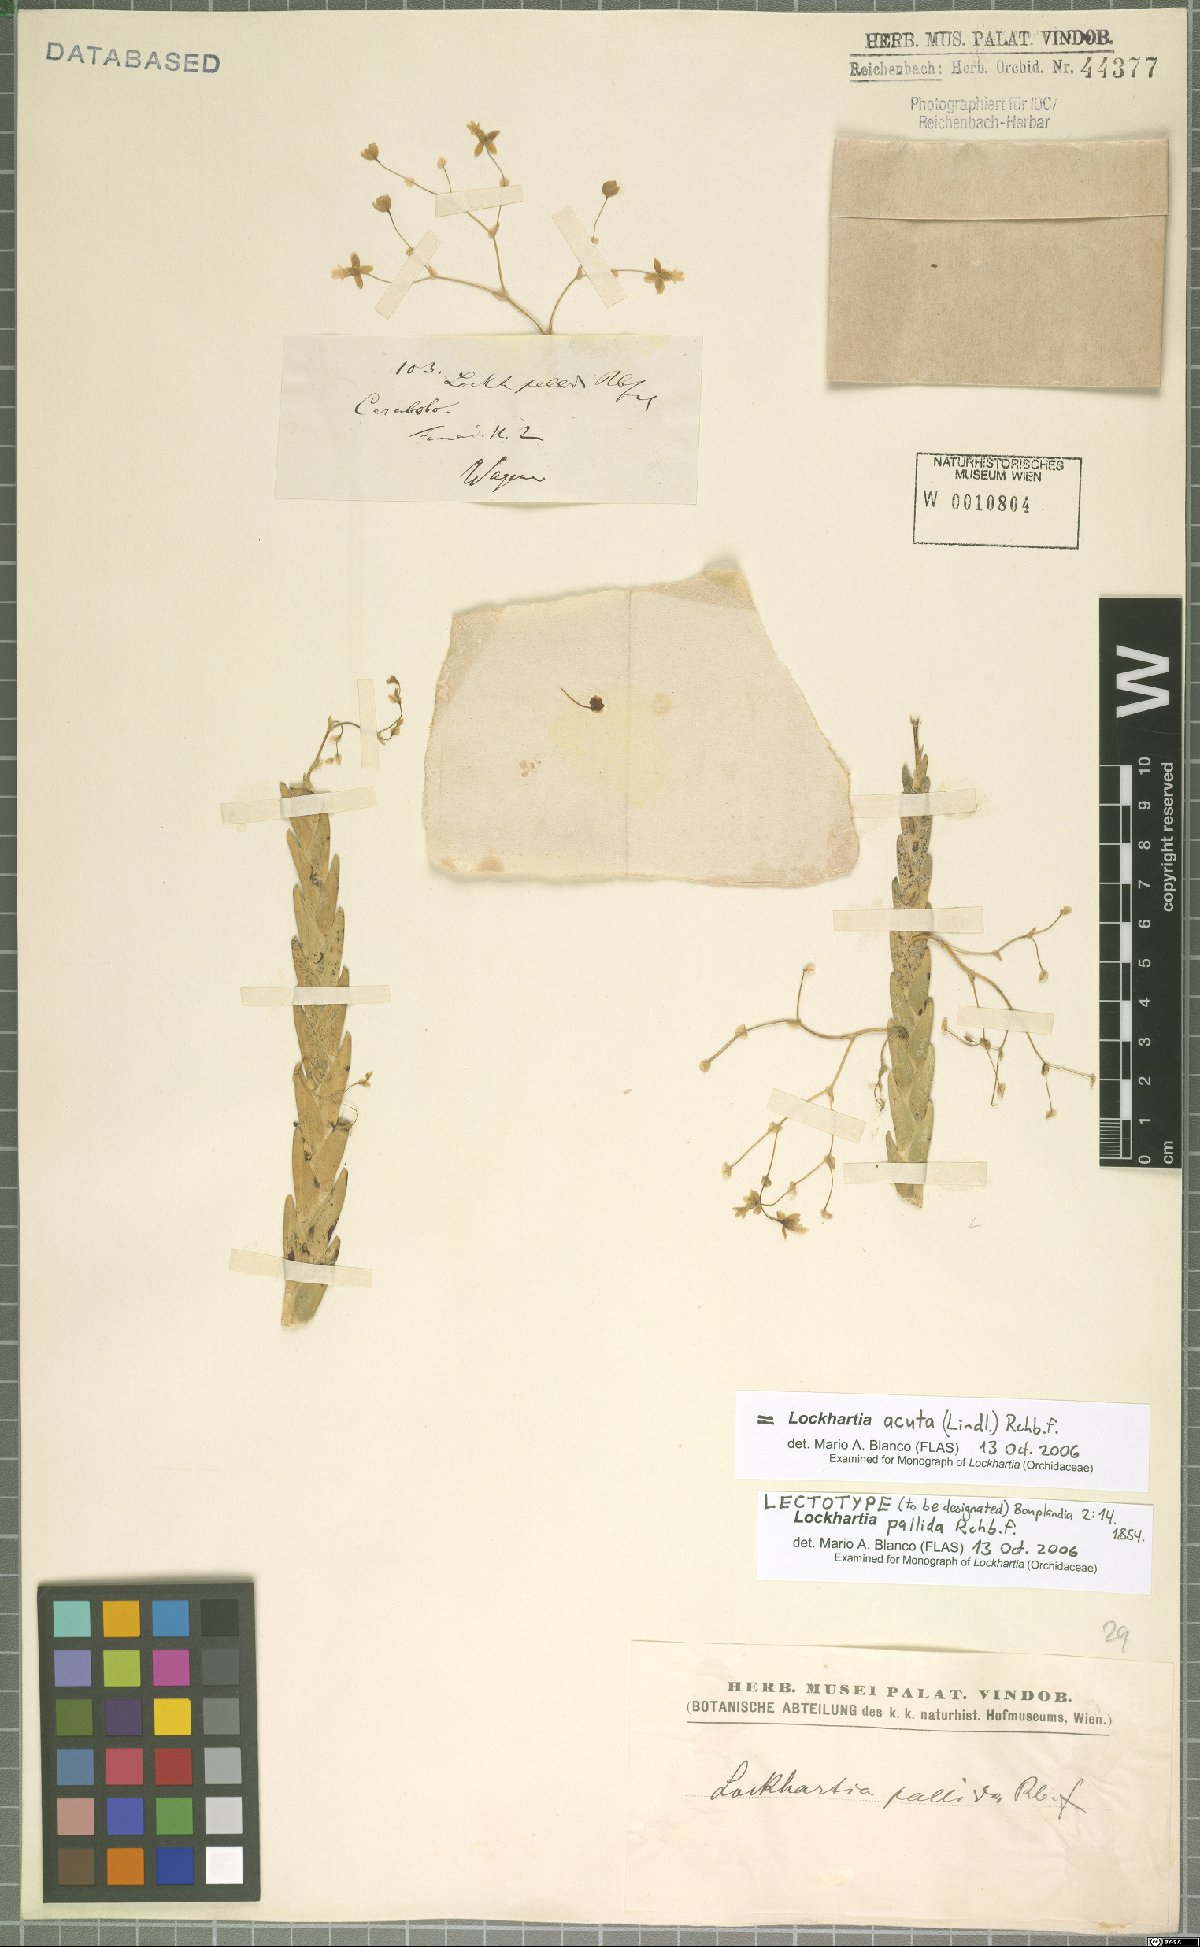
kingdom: Plantae
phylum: Tracheophyta
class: Liliopsida
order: Asparagales
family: Orchidaceae
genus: Lockhartia
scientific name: Lockhartia acuta
